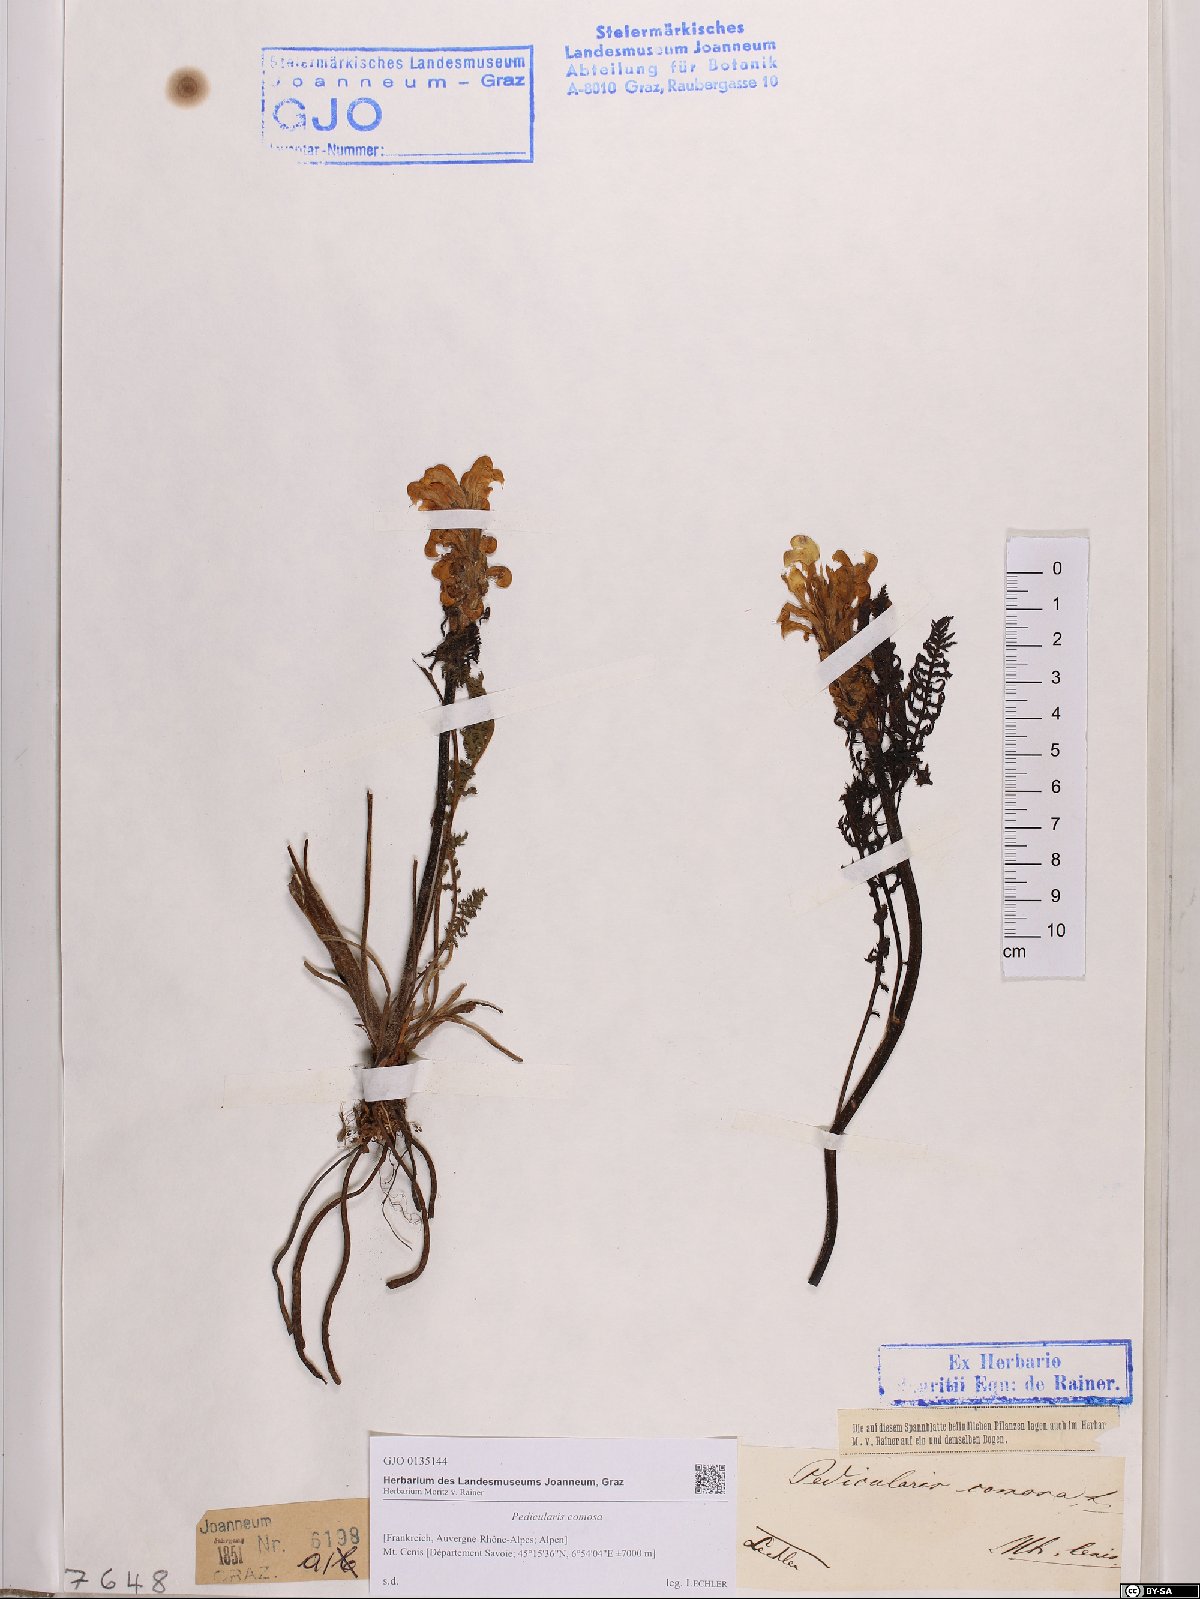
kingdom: Plantae
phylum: Tracheophyta
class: Magnoliopsida
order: Lamiales
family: Orobanchaceae
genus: Pedicularis
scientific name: Pedicularis comosa
